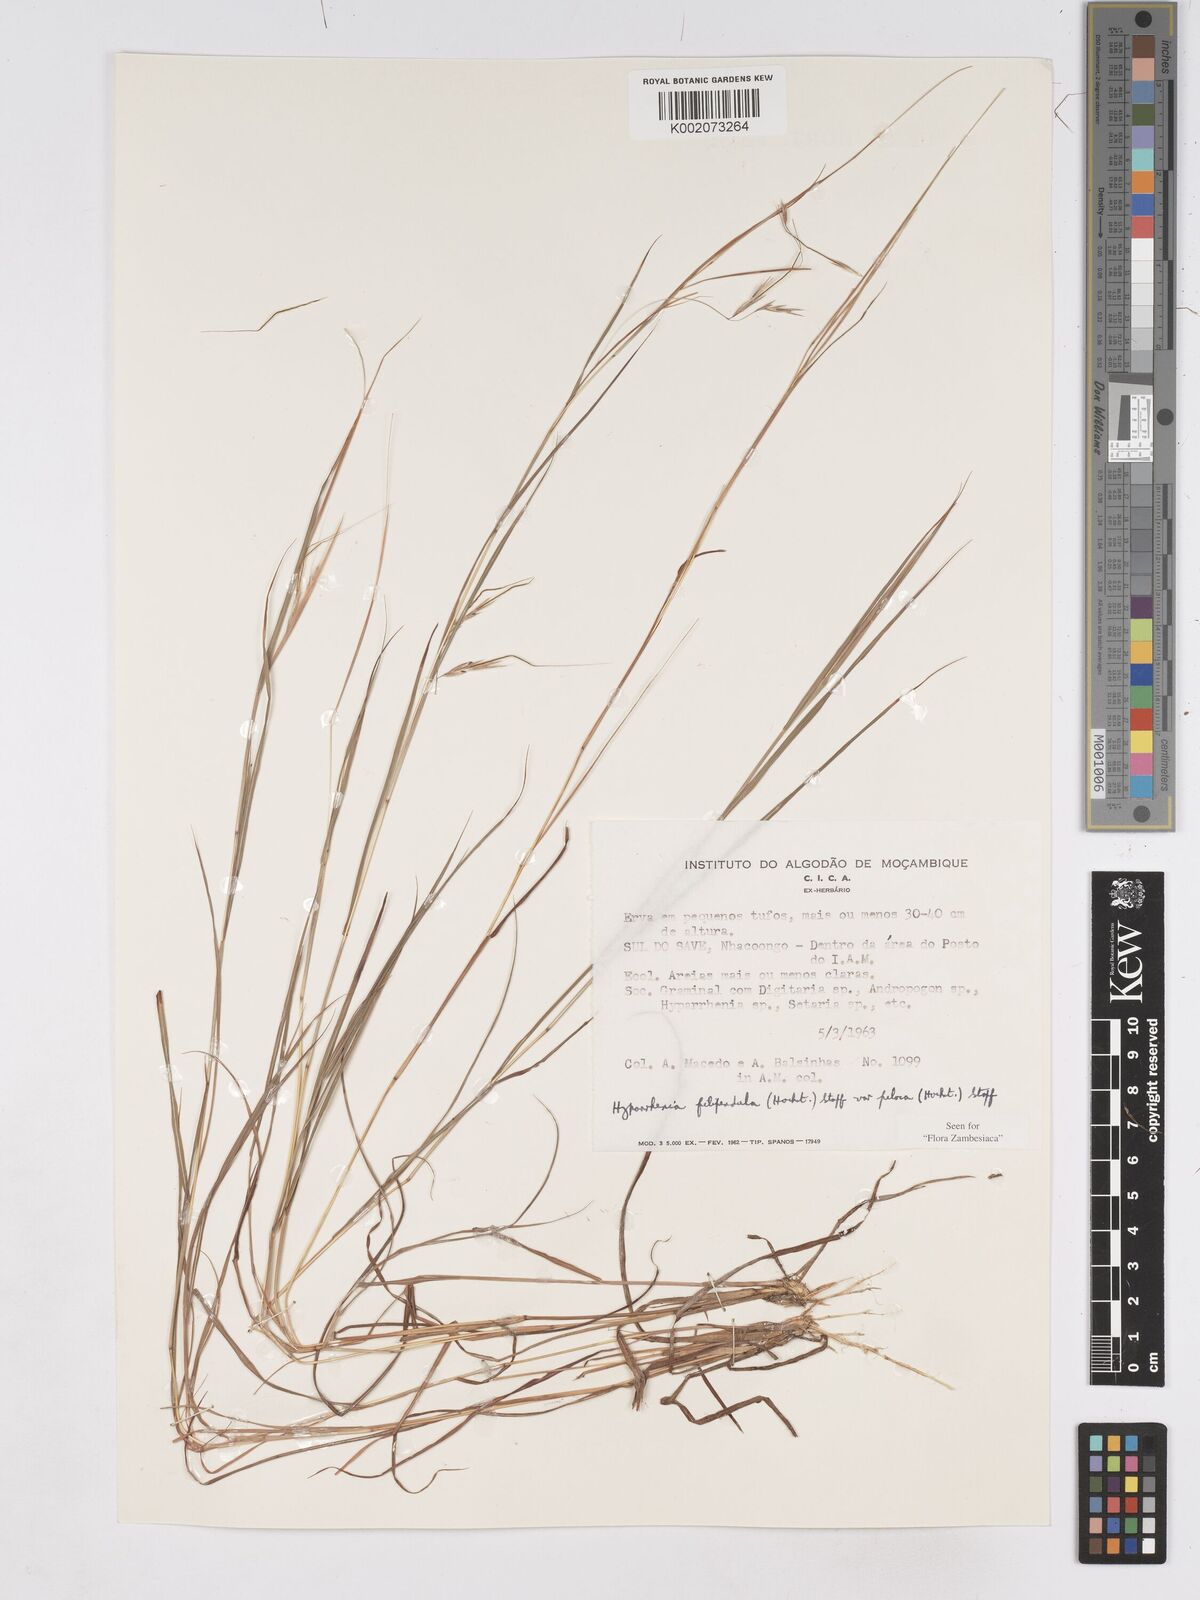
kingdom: Plantae
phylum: Tracheophyta
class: Liliopsida
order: Poales
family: Poaceae
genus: Hyparrhenia
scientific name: Hyparrhenia filipendula
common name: Tambookie grass
